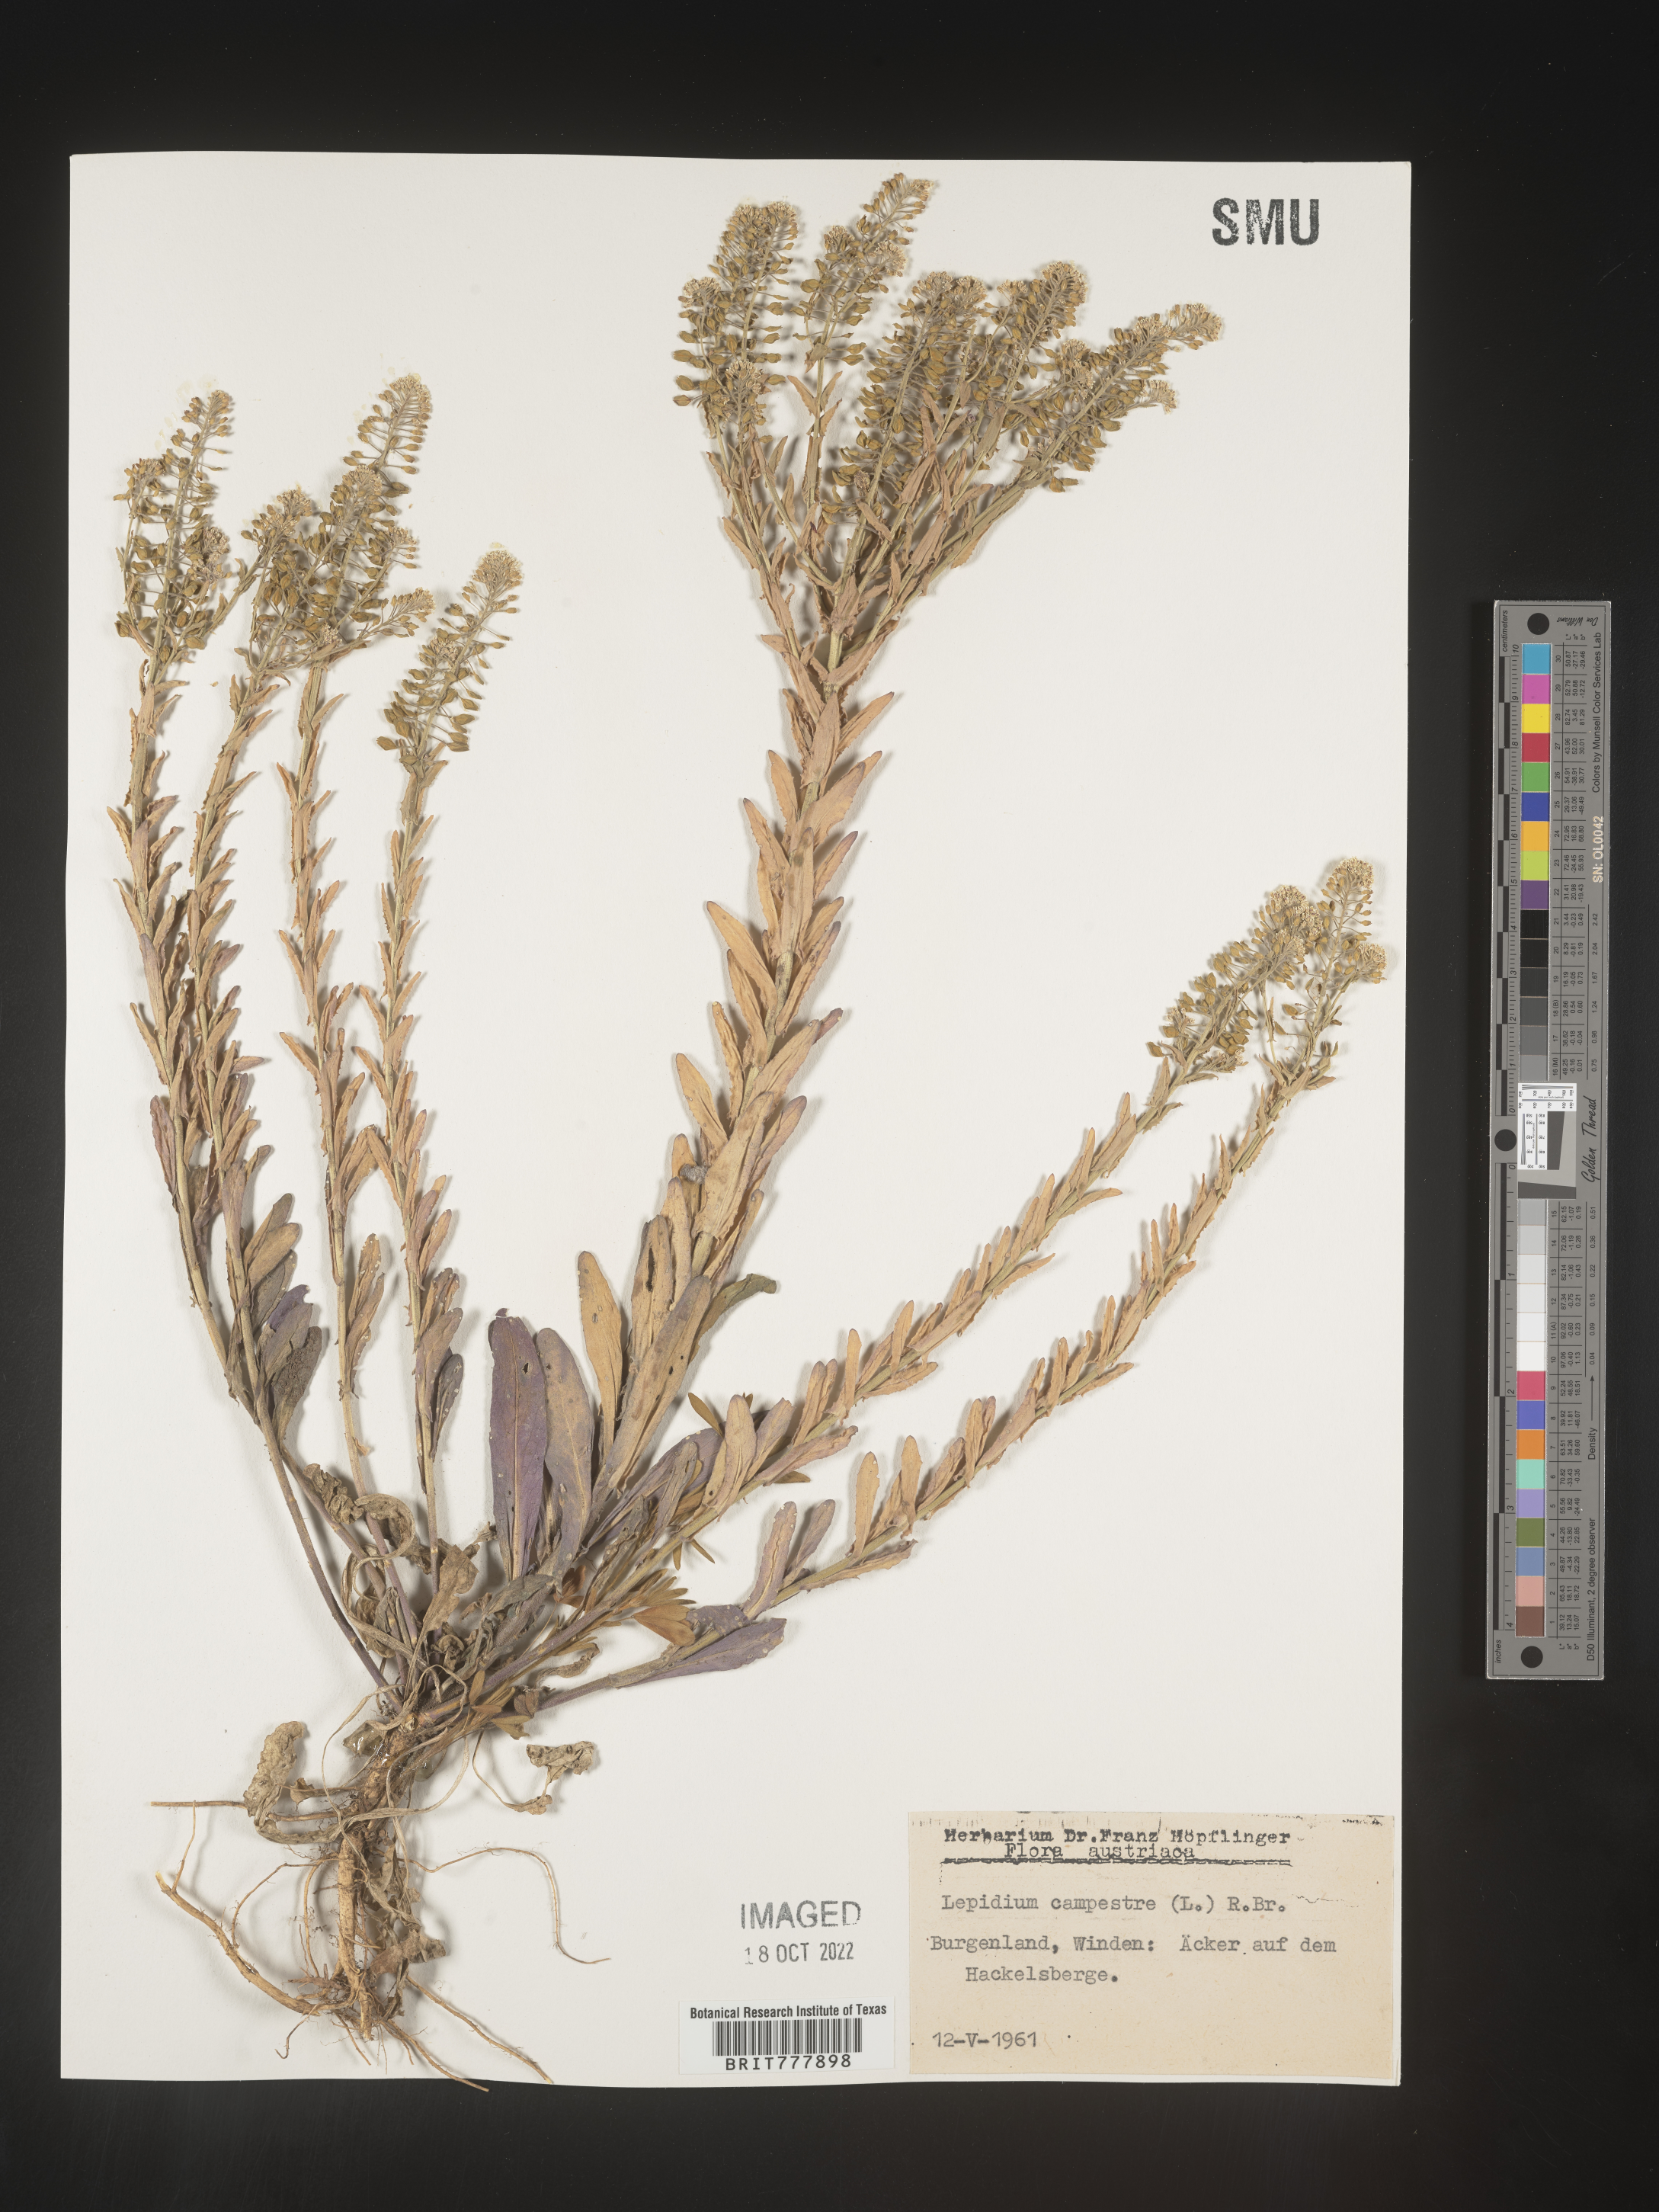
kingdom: Plantae
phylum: Tracheophyta
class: Magnoliopsida
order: Brassicales
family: Brassicaceae
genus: Lepidium
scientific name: Lepidium
